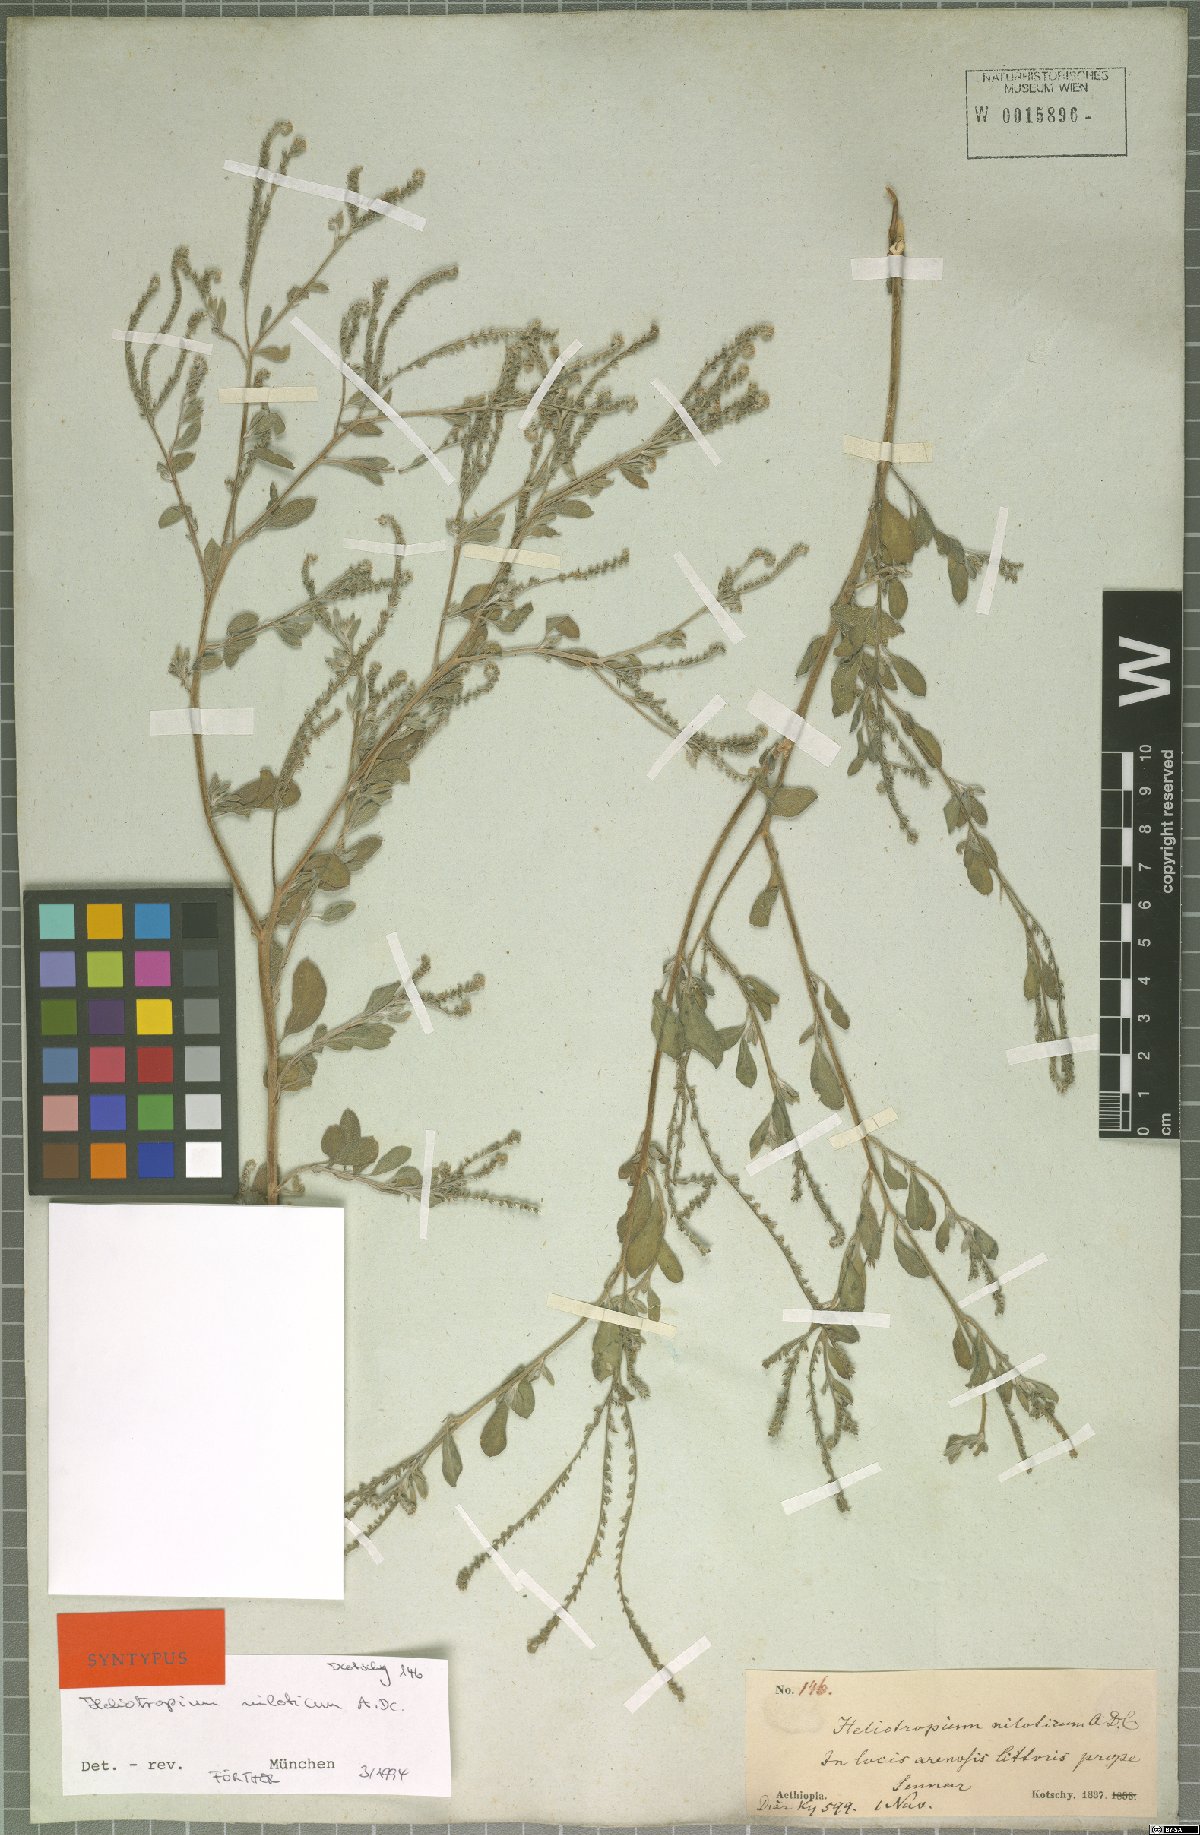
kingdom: Plantae
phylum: Tracheophyta
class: Magnoliopsida
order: Boraginales
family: Heliotropiaceae
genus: Euploca
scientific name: Euploca ovalifolia
